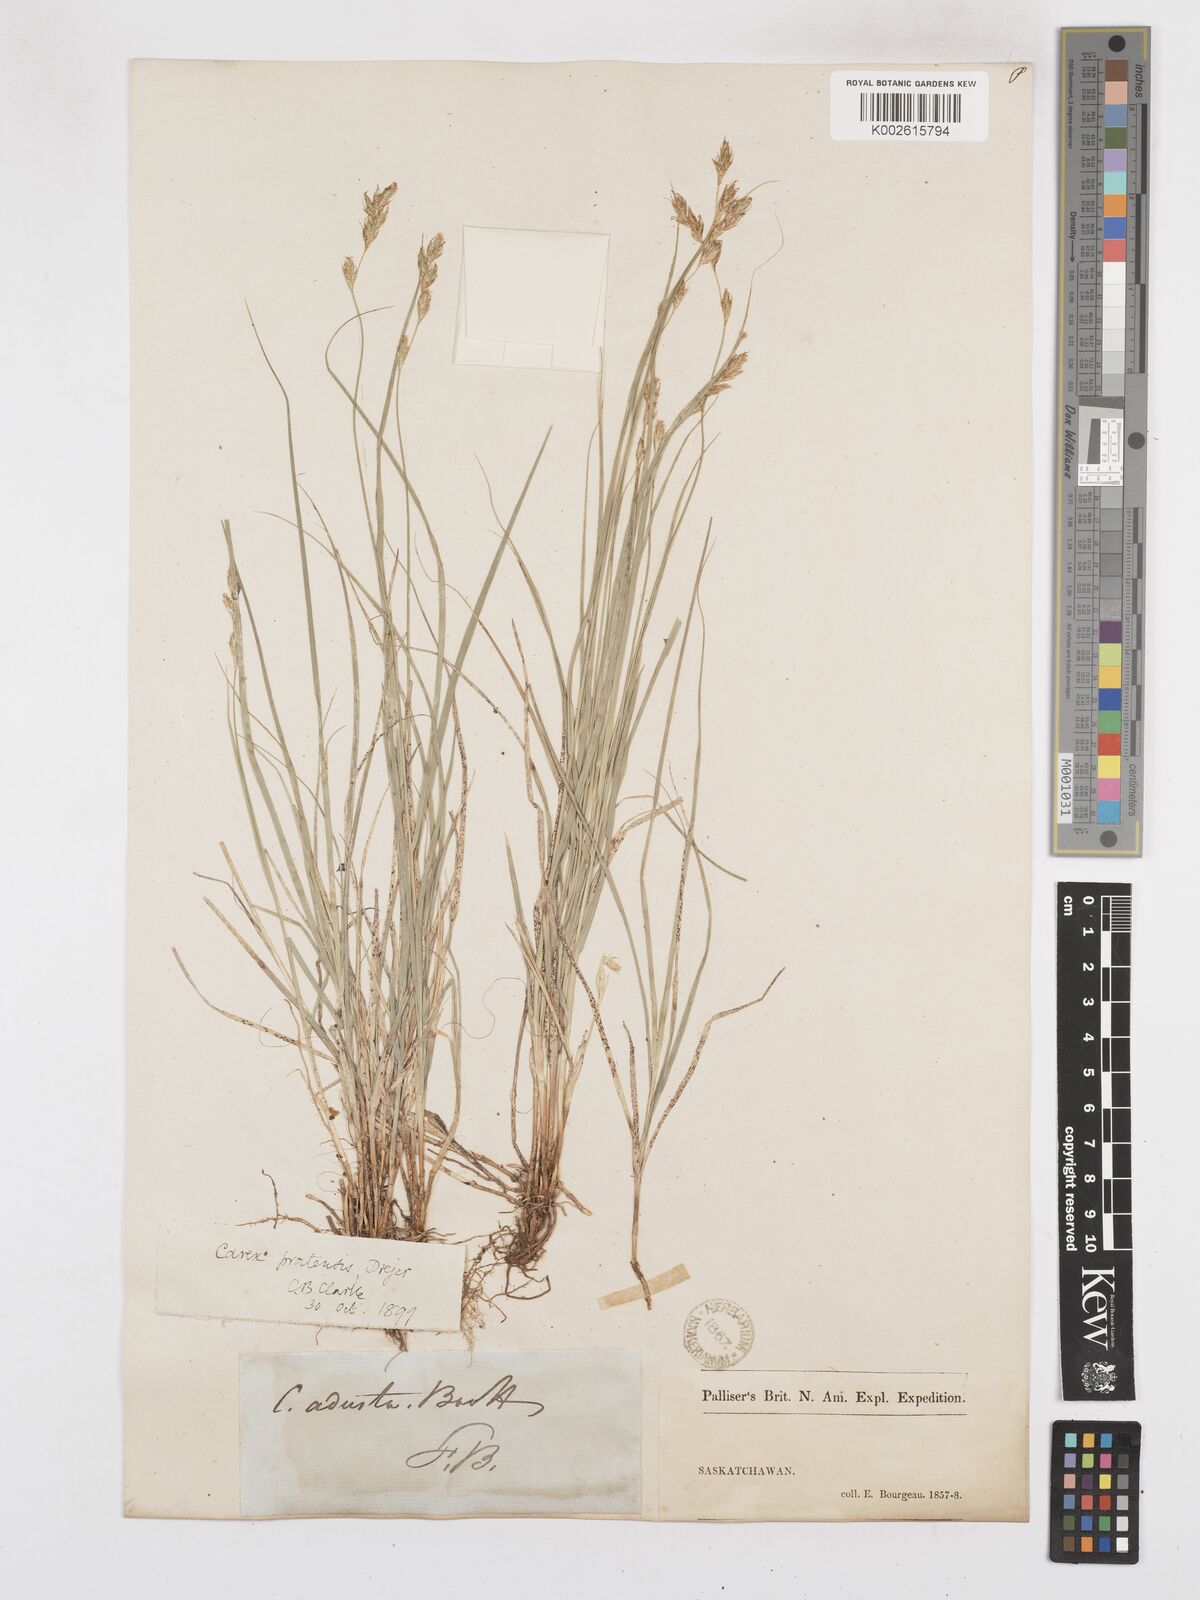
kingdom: Plantae
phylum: Tracheophyta
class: Liliopsida
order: Poales
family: Cyperaceae
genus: Carex
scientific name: Carex praticola
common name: Large-fruited oval sedge
